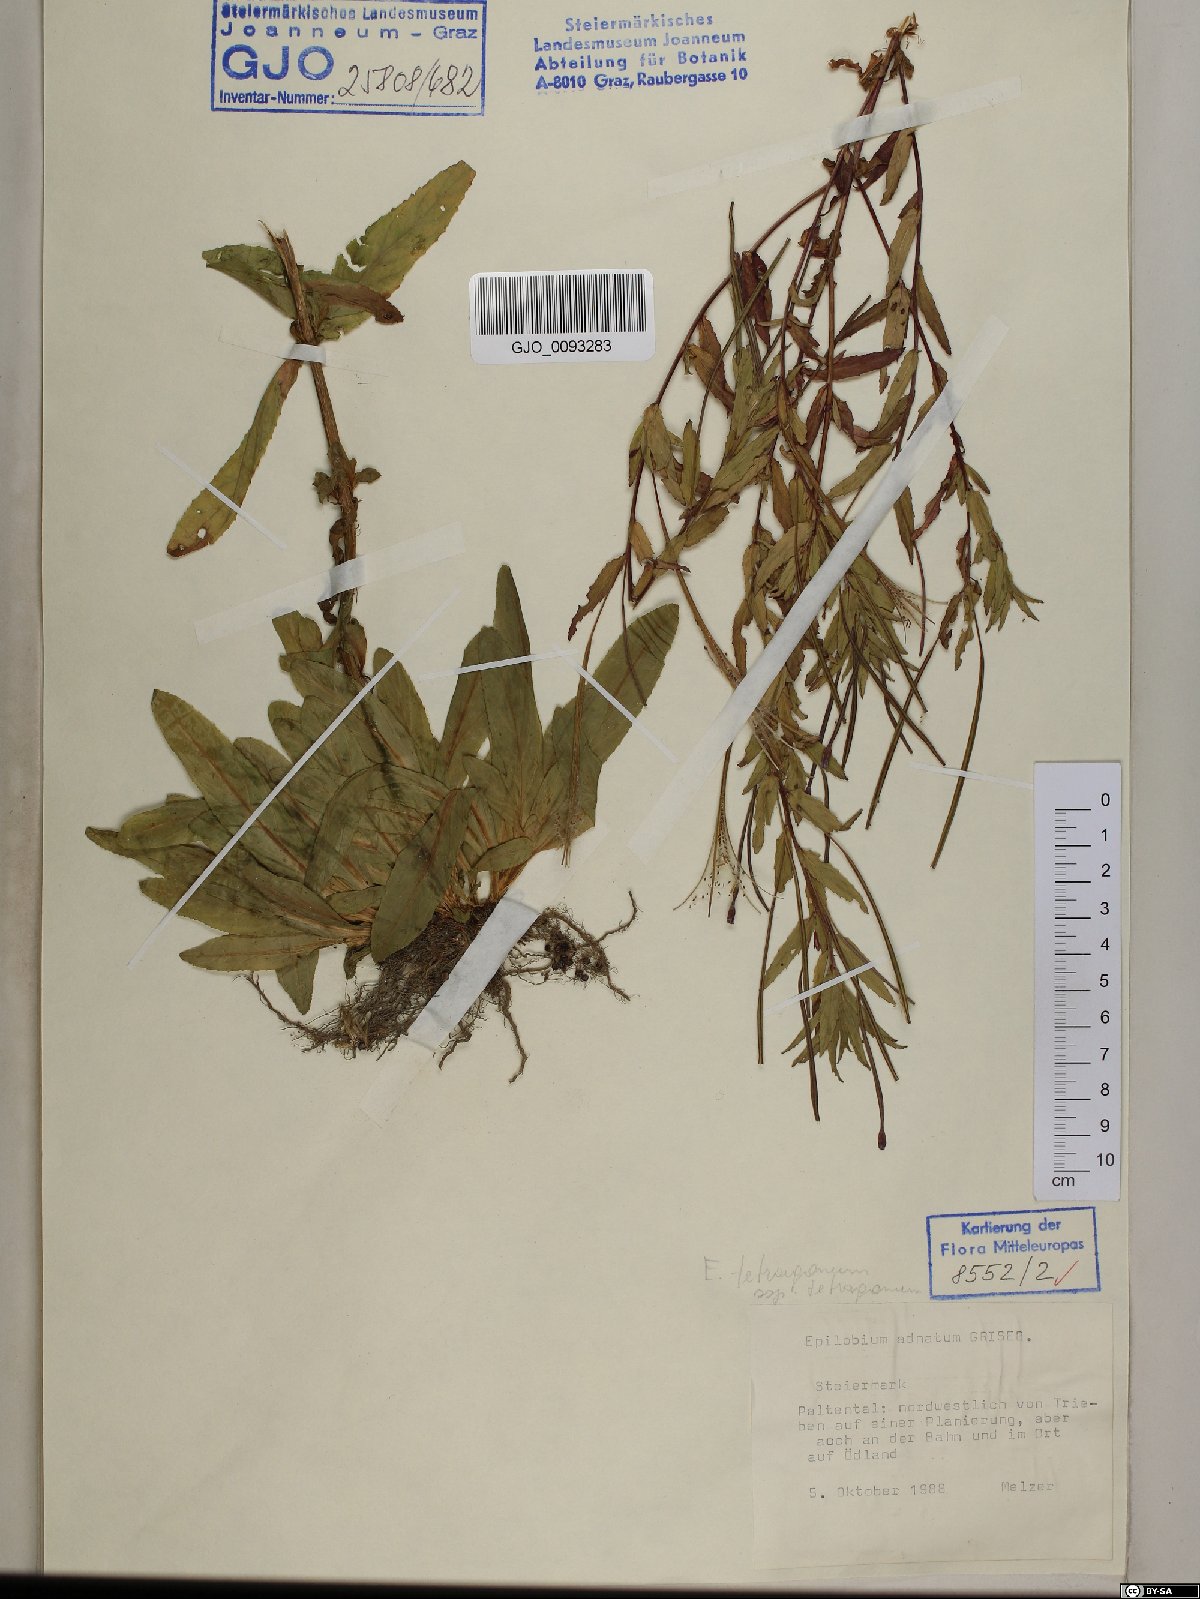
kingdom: Plantae
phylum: Tracheophyta
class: Magnoliopsida
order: Myrtales
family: Onagraceae
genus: Epilobium
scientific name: Epilobium tetragonum
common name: Square-stemmed willowherb
